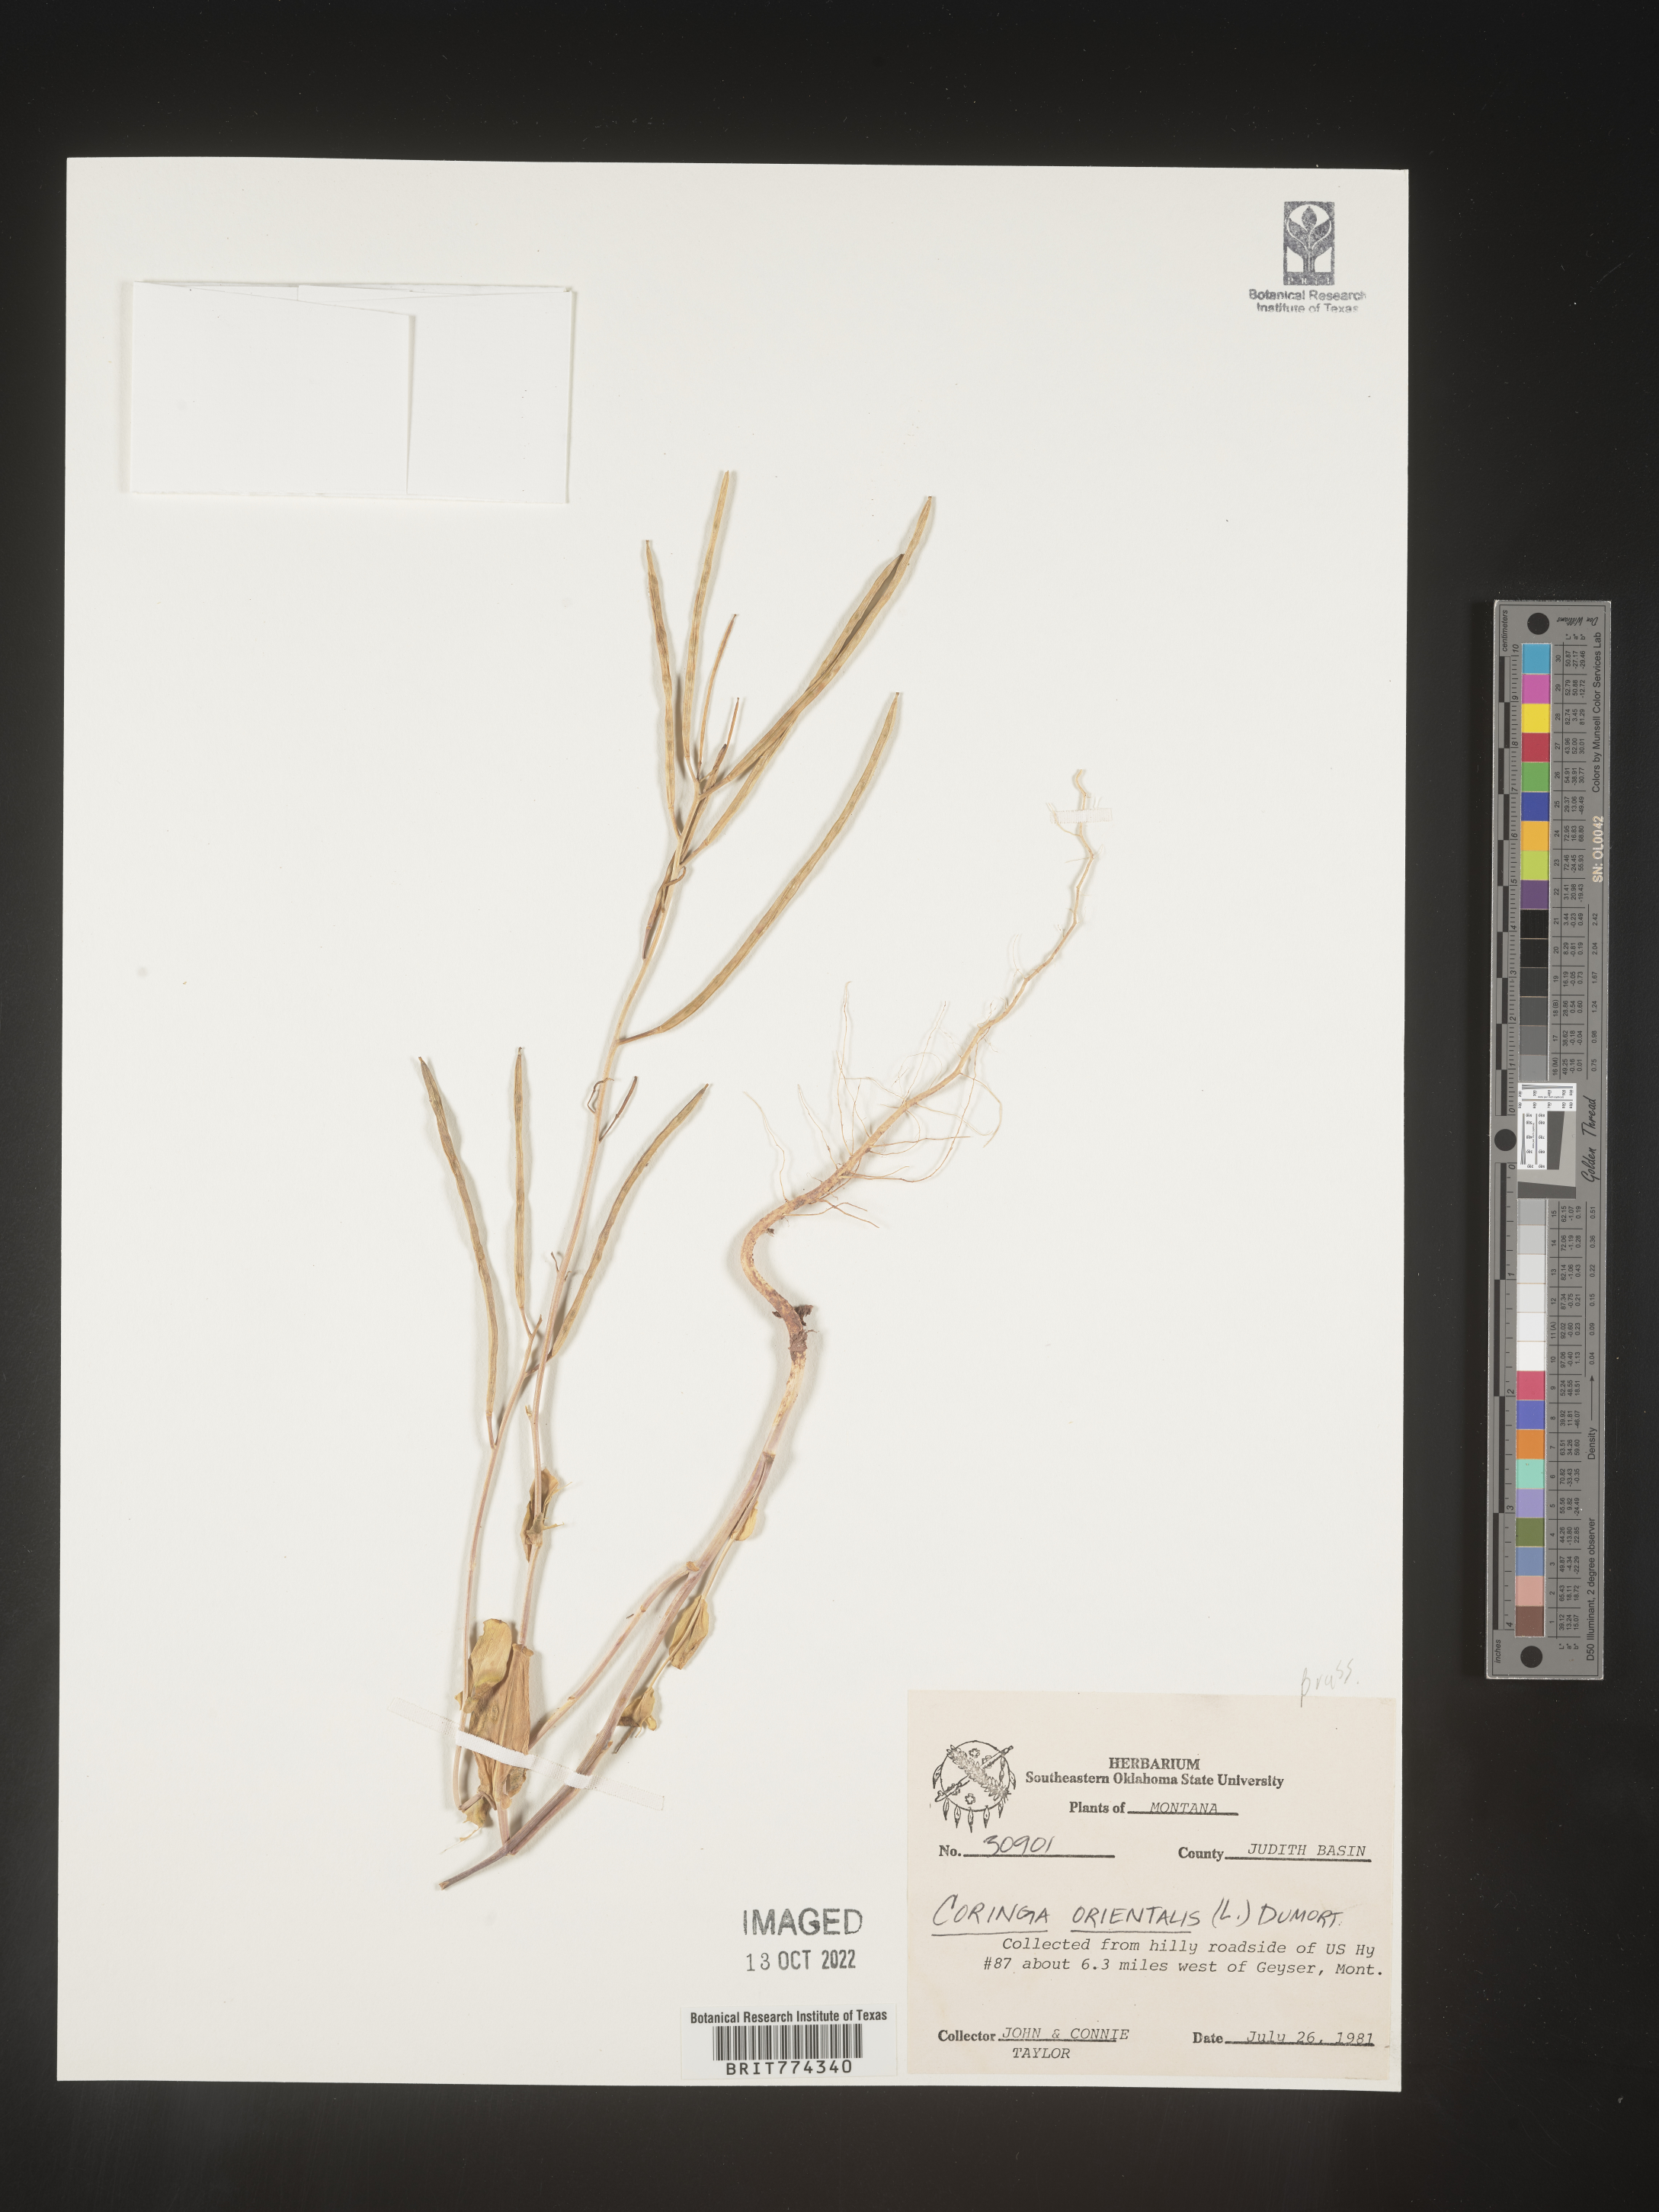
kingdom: Plantae
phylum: Tracheophyta
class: Magnoliopsida
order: Brassicales
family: Brassicaceae
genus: Conringia
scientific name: Conringia
